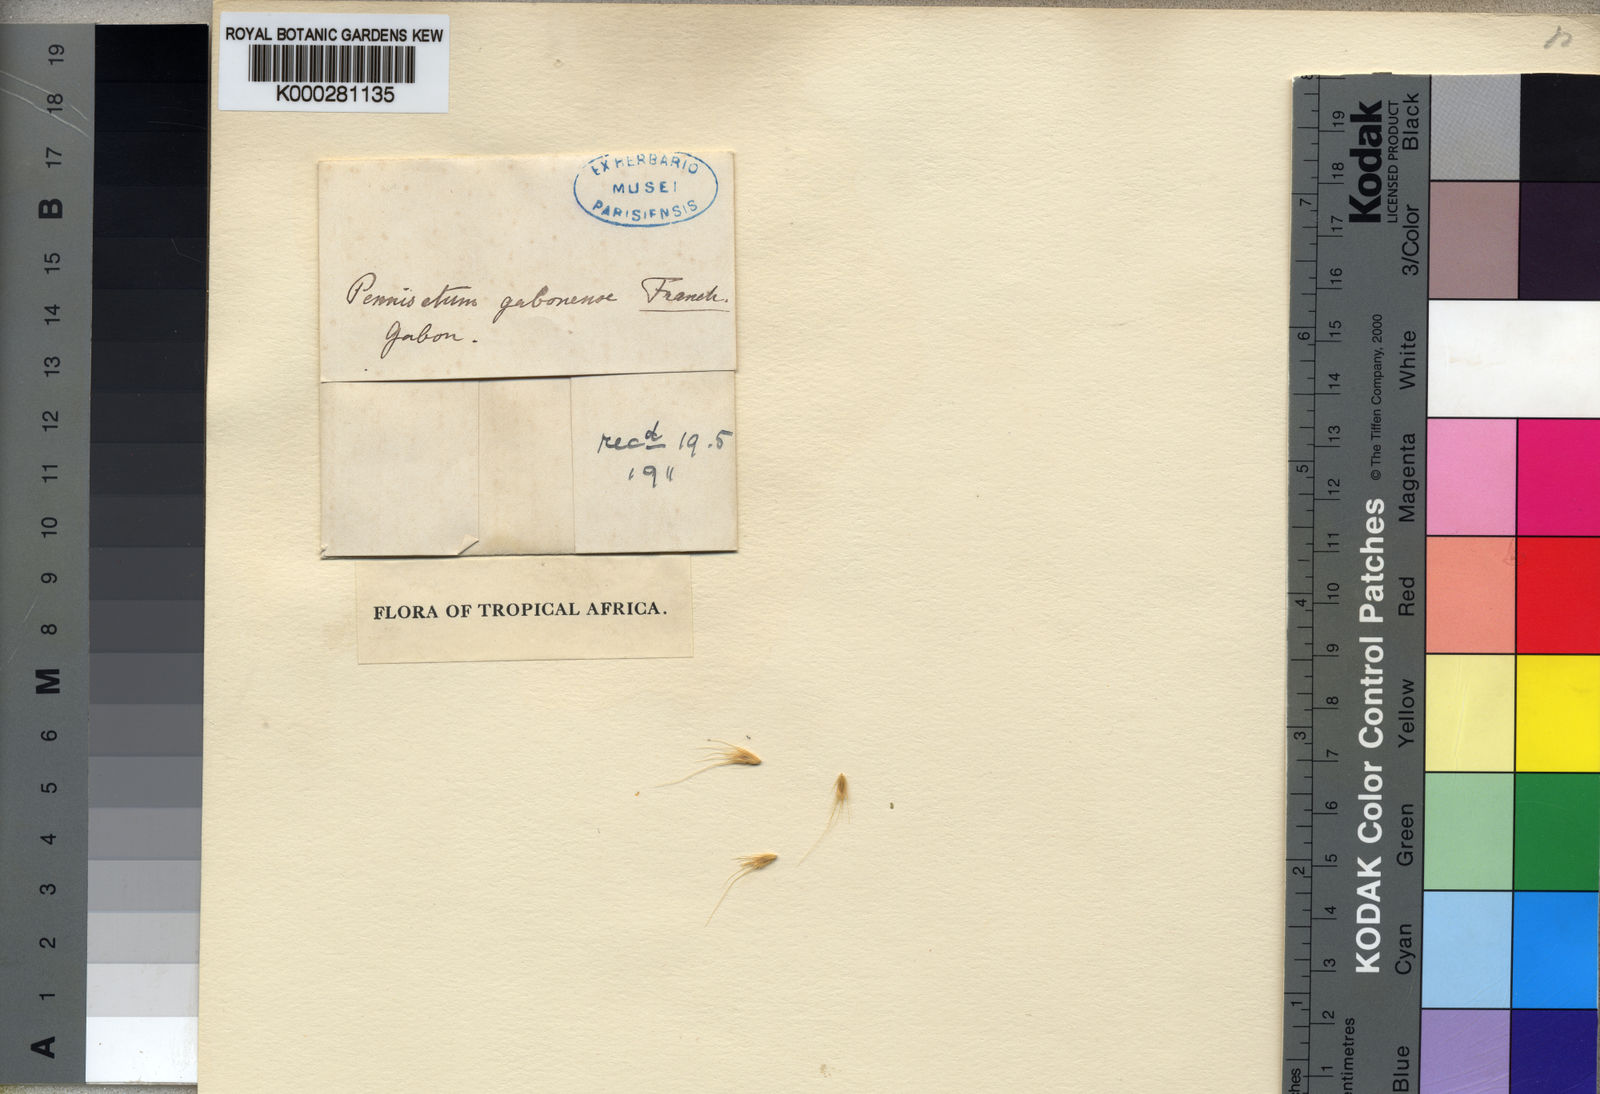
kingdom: Plantae
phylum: Tracheophyta
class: Liliopsida
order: Poales
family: Poaceae
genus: Cenchrus
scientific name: Cenchrus Pennisetum spec
